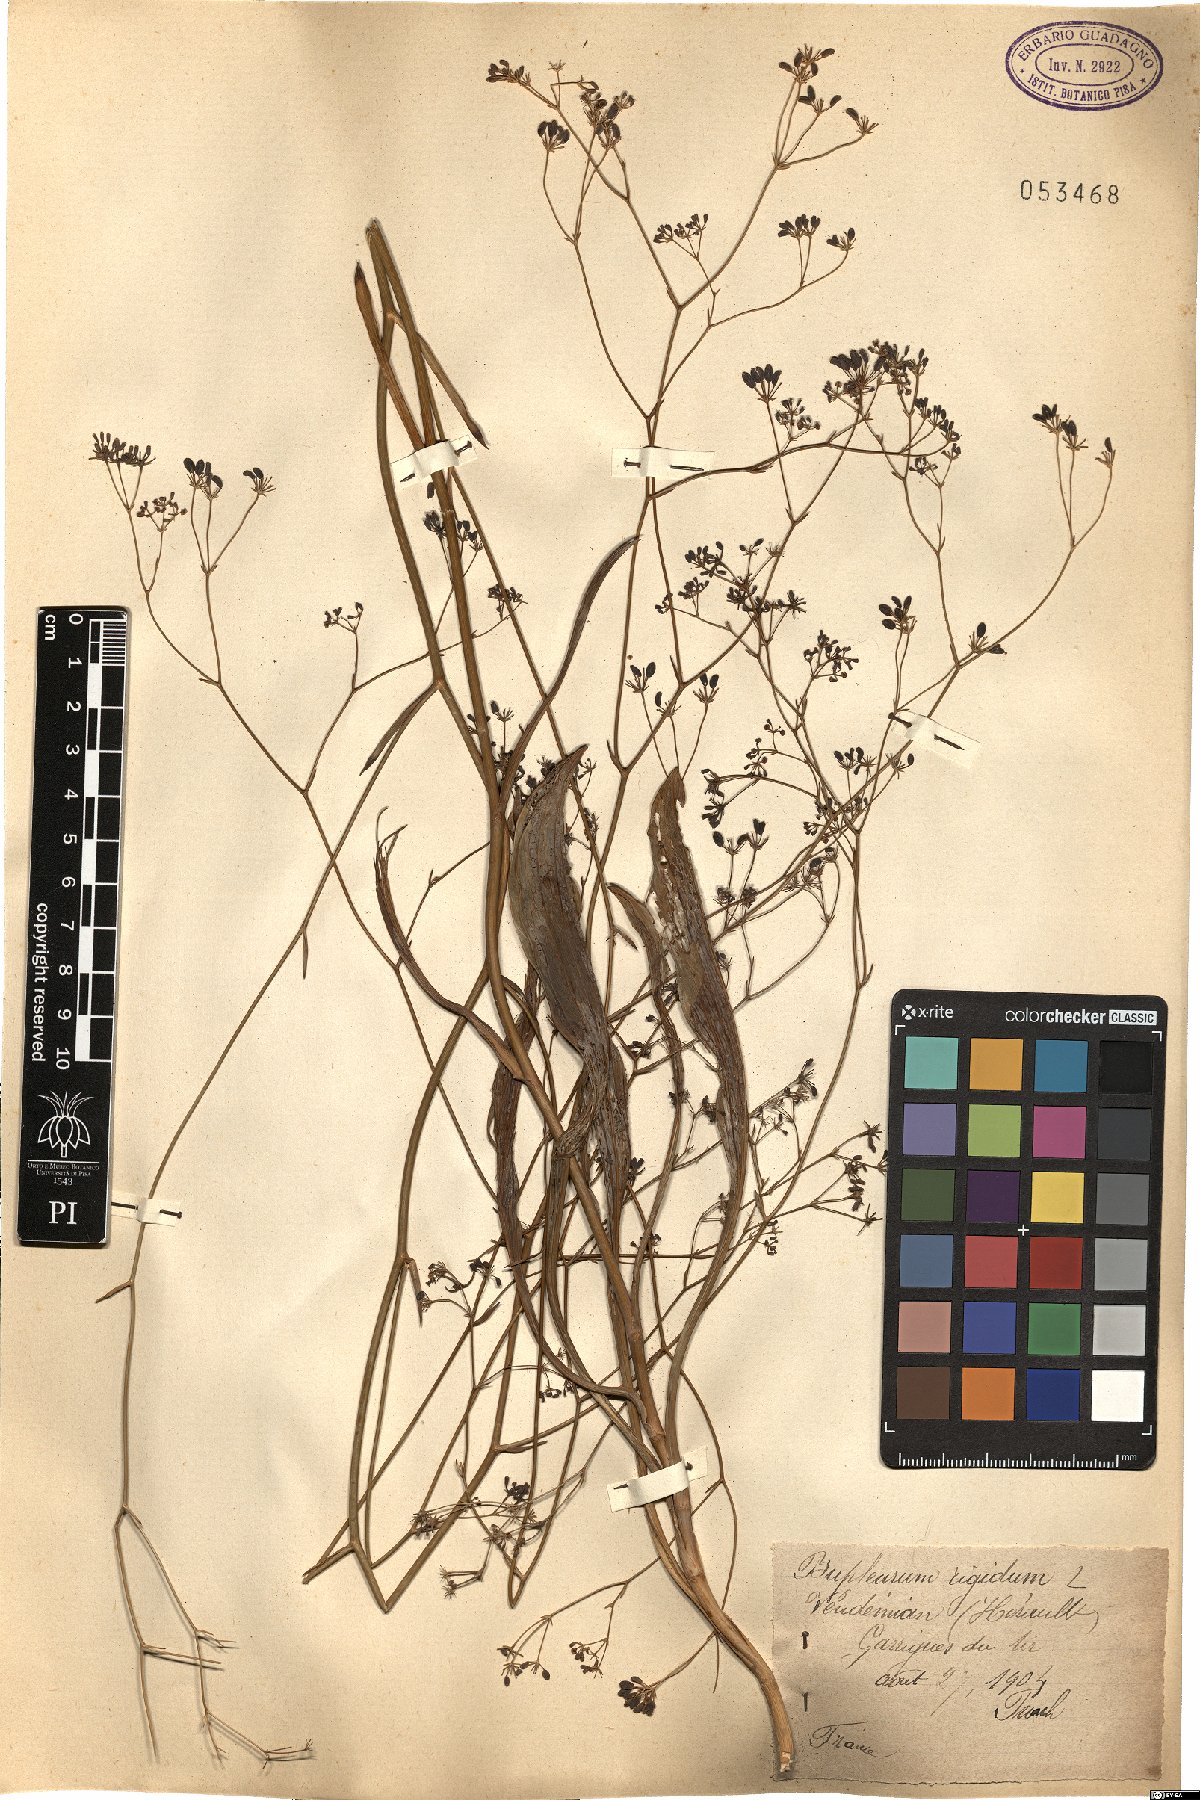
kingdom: Plantae
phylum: Tracheophyta
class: Magnoliopsida
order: Apiales
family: Apiaceae
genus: Bupleurum
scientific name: Bupleurum rigidum
